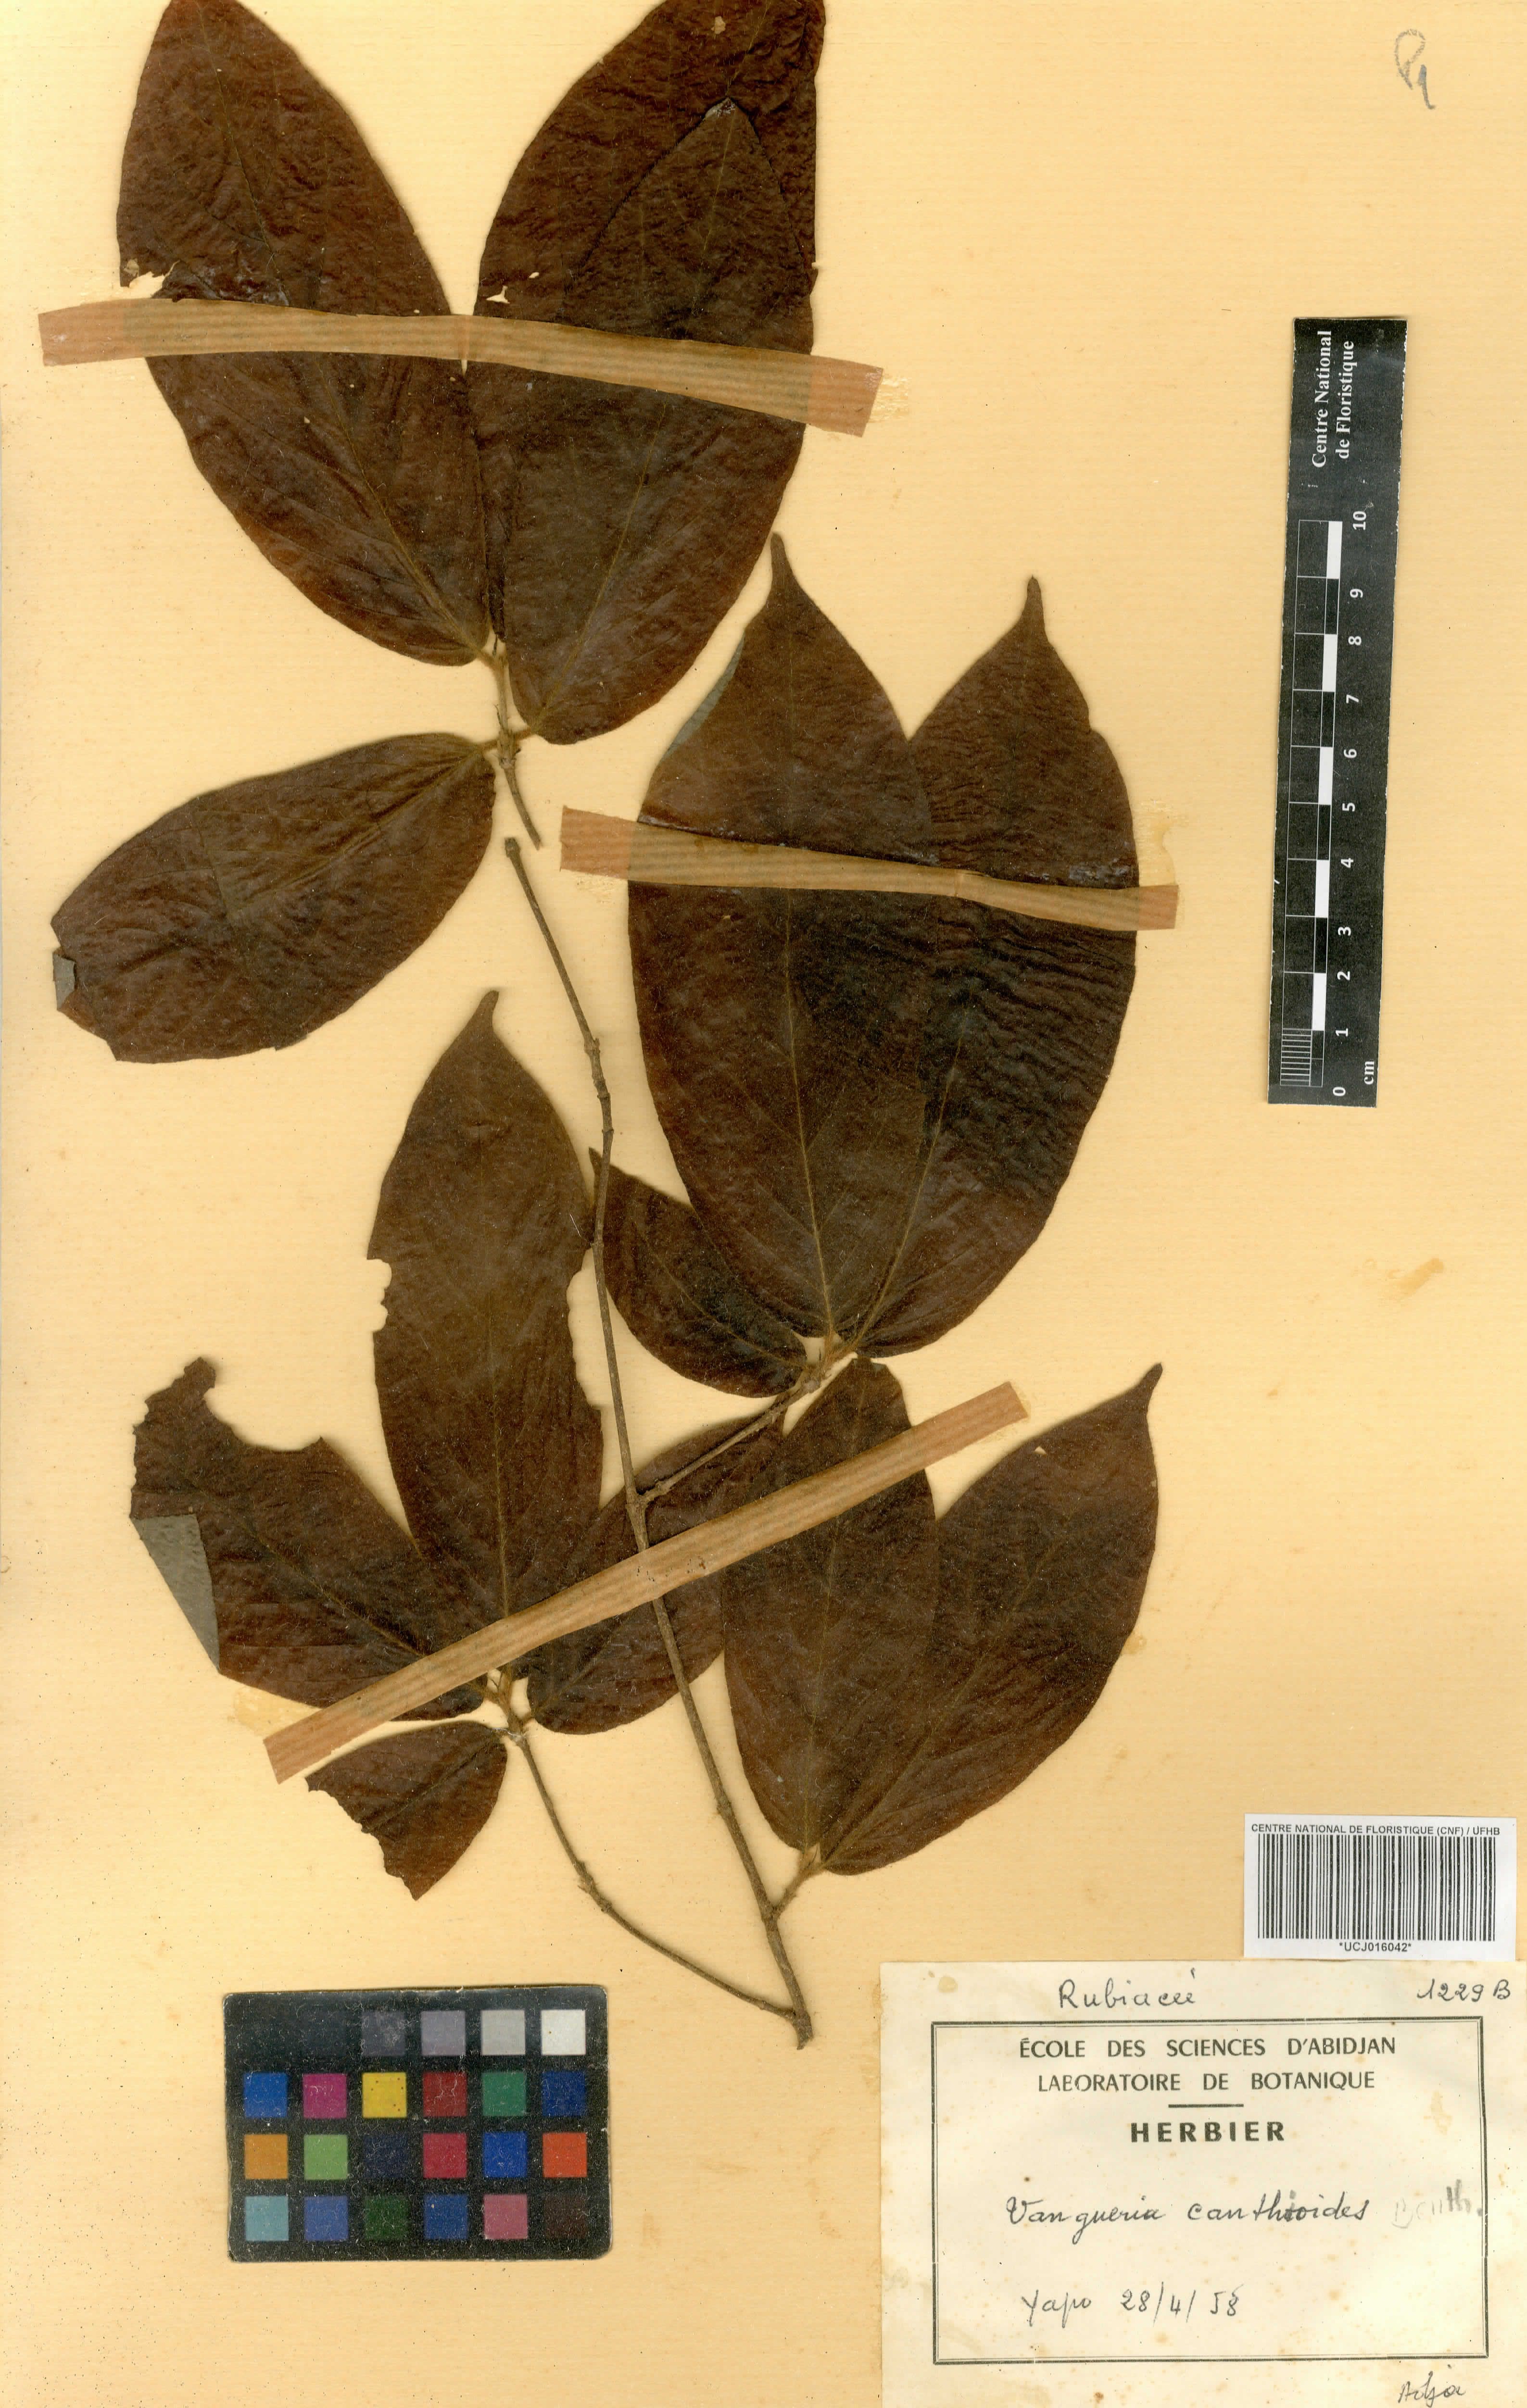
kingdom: Plantae
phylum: Tracheophyta
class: Magnoliopsida
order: Gentianales
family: Rubiaceae
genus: Rytigynia
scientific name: Rytigynia canthioides
